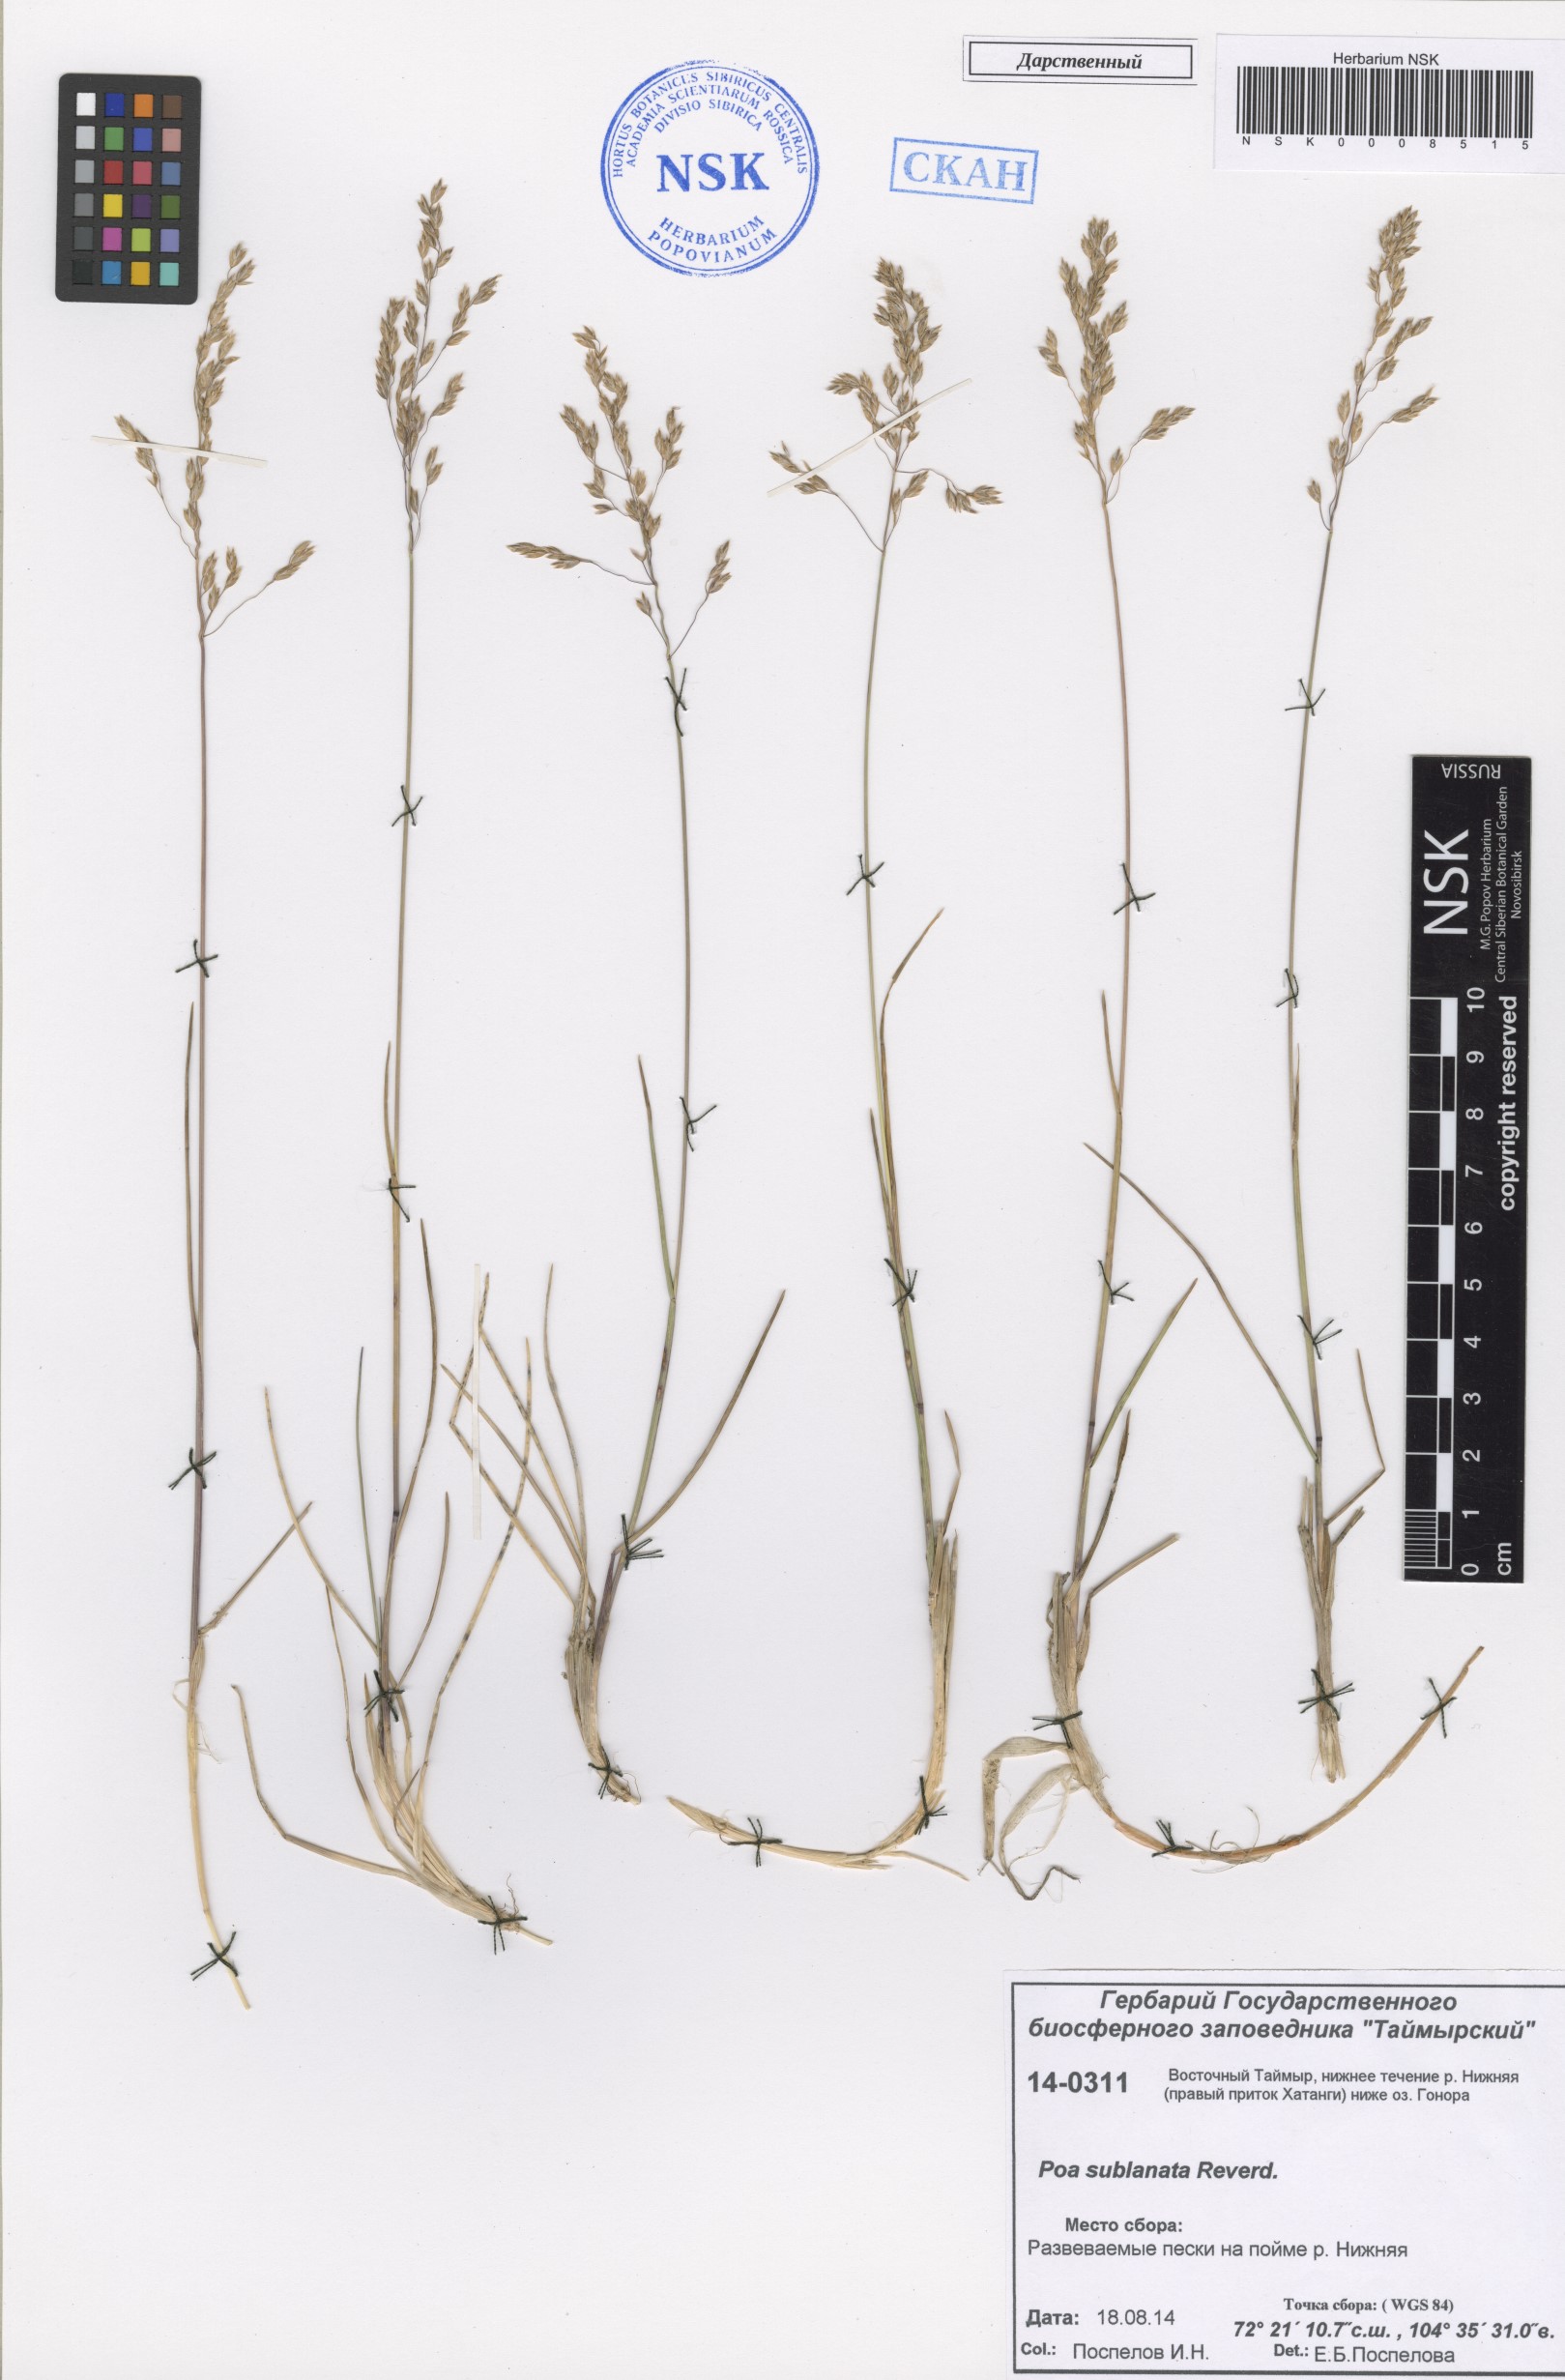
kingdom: Plantae
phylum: Tracheophyta
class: Liliopsida
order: Poales
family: Poaceae
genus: Poa
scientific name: Poa sublanata
